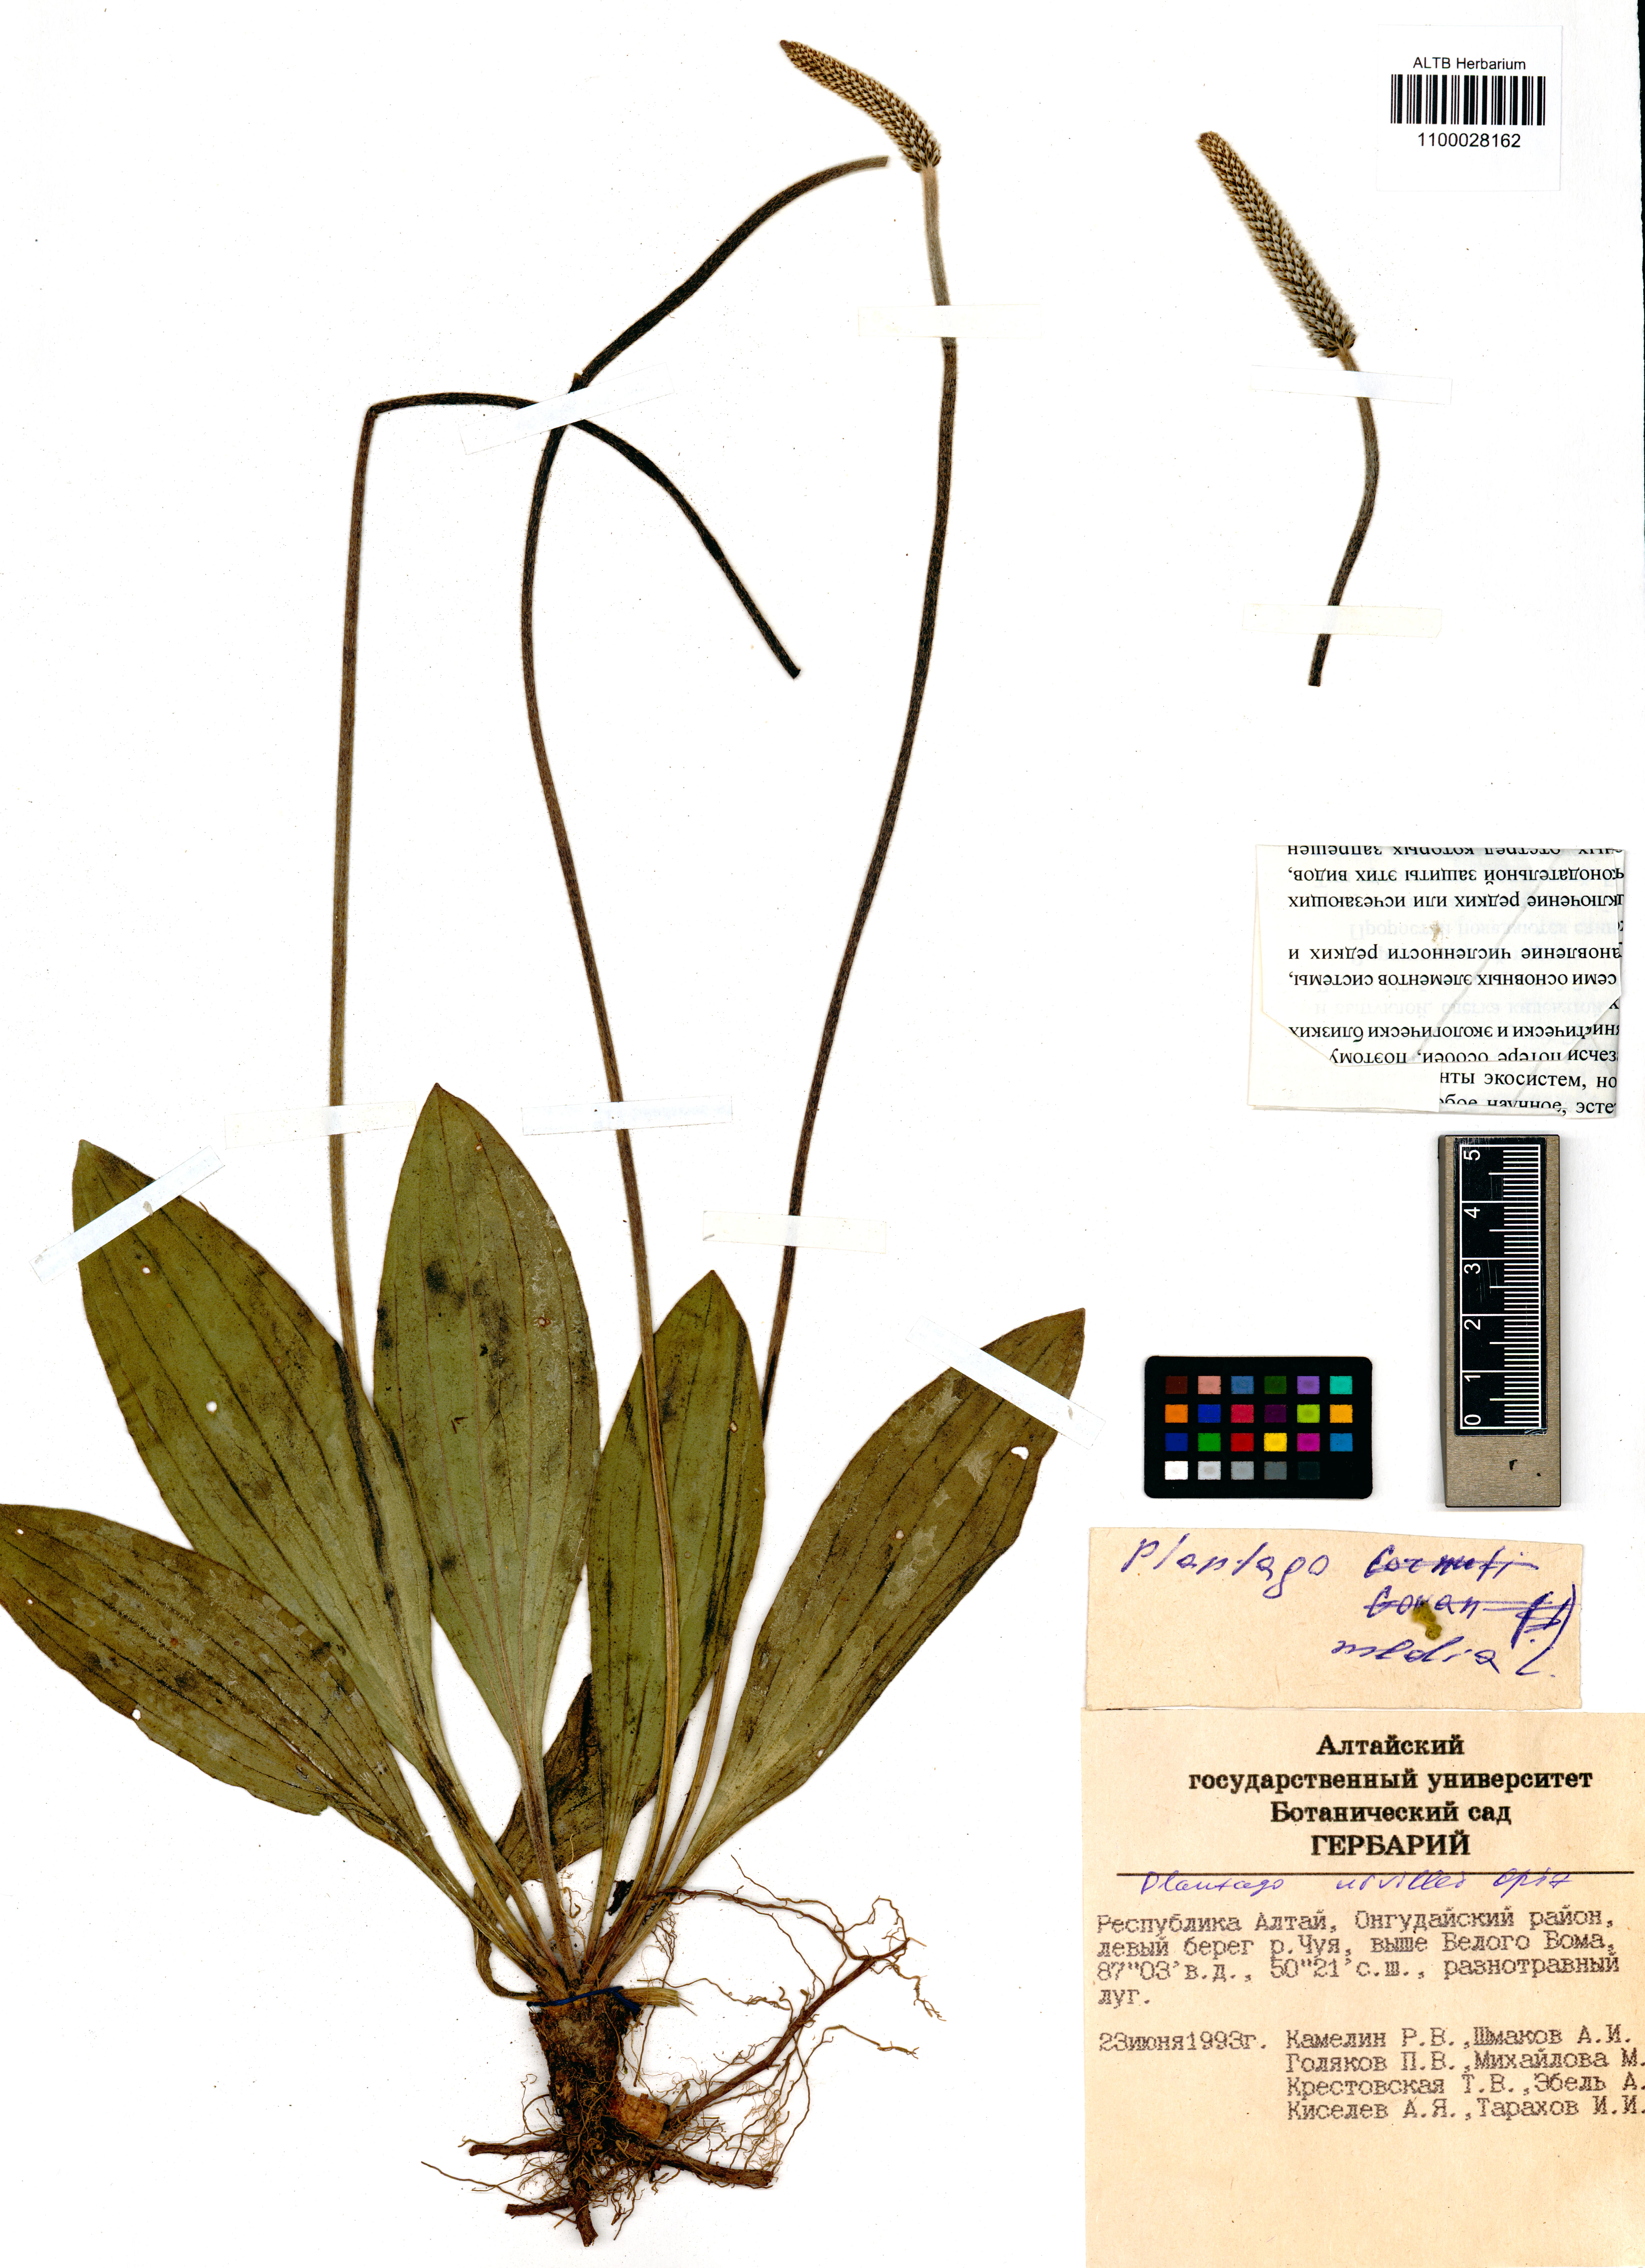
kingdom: Plantae
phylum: Tracheophyta
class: Magnoliopsida
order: Lamiales
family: Plantaginaceae
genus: Plantago
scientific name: Plantago urvillei
